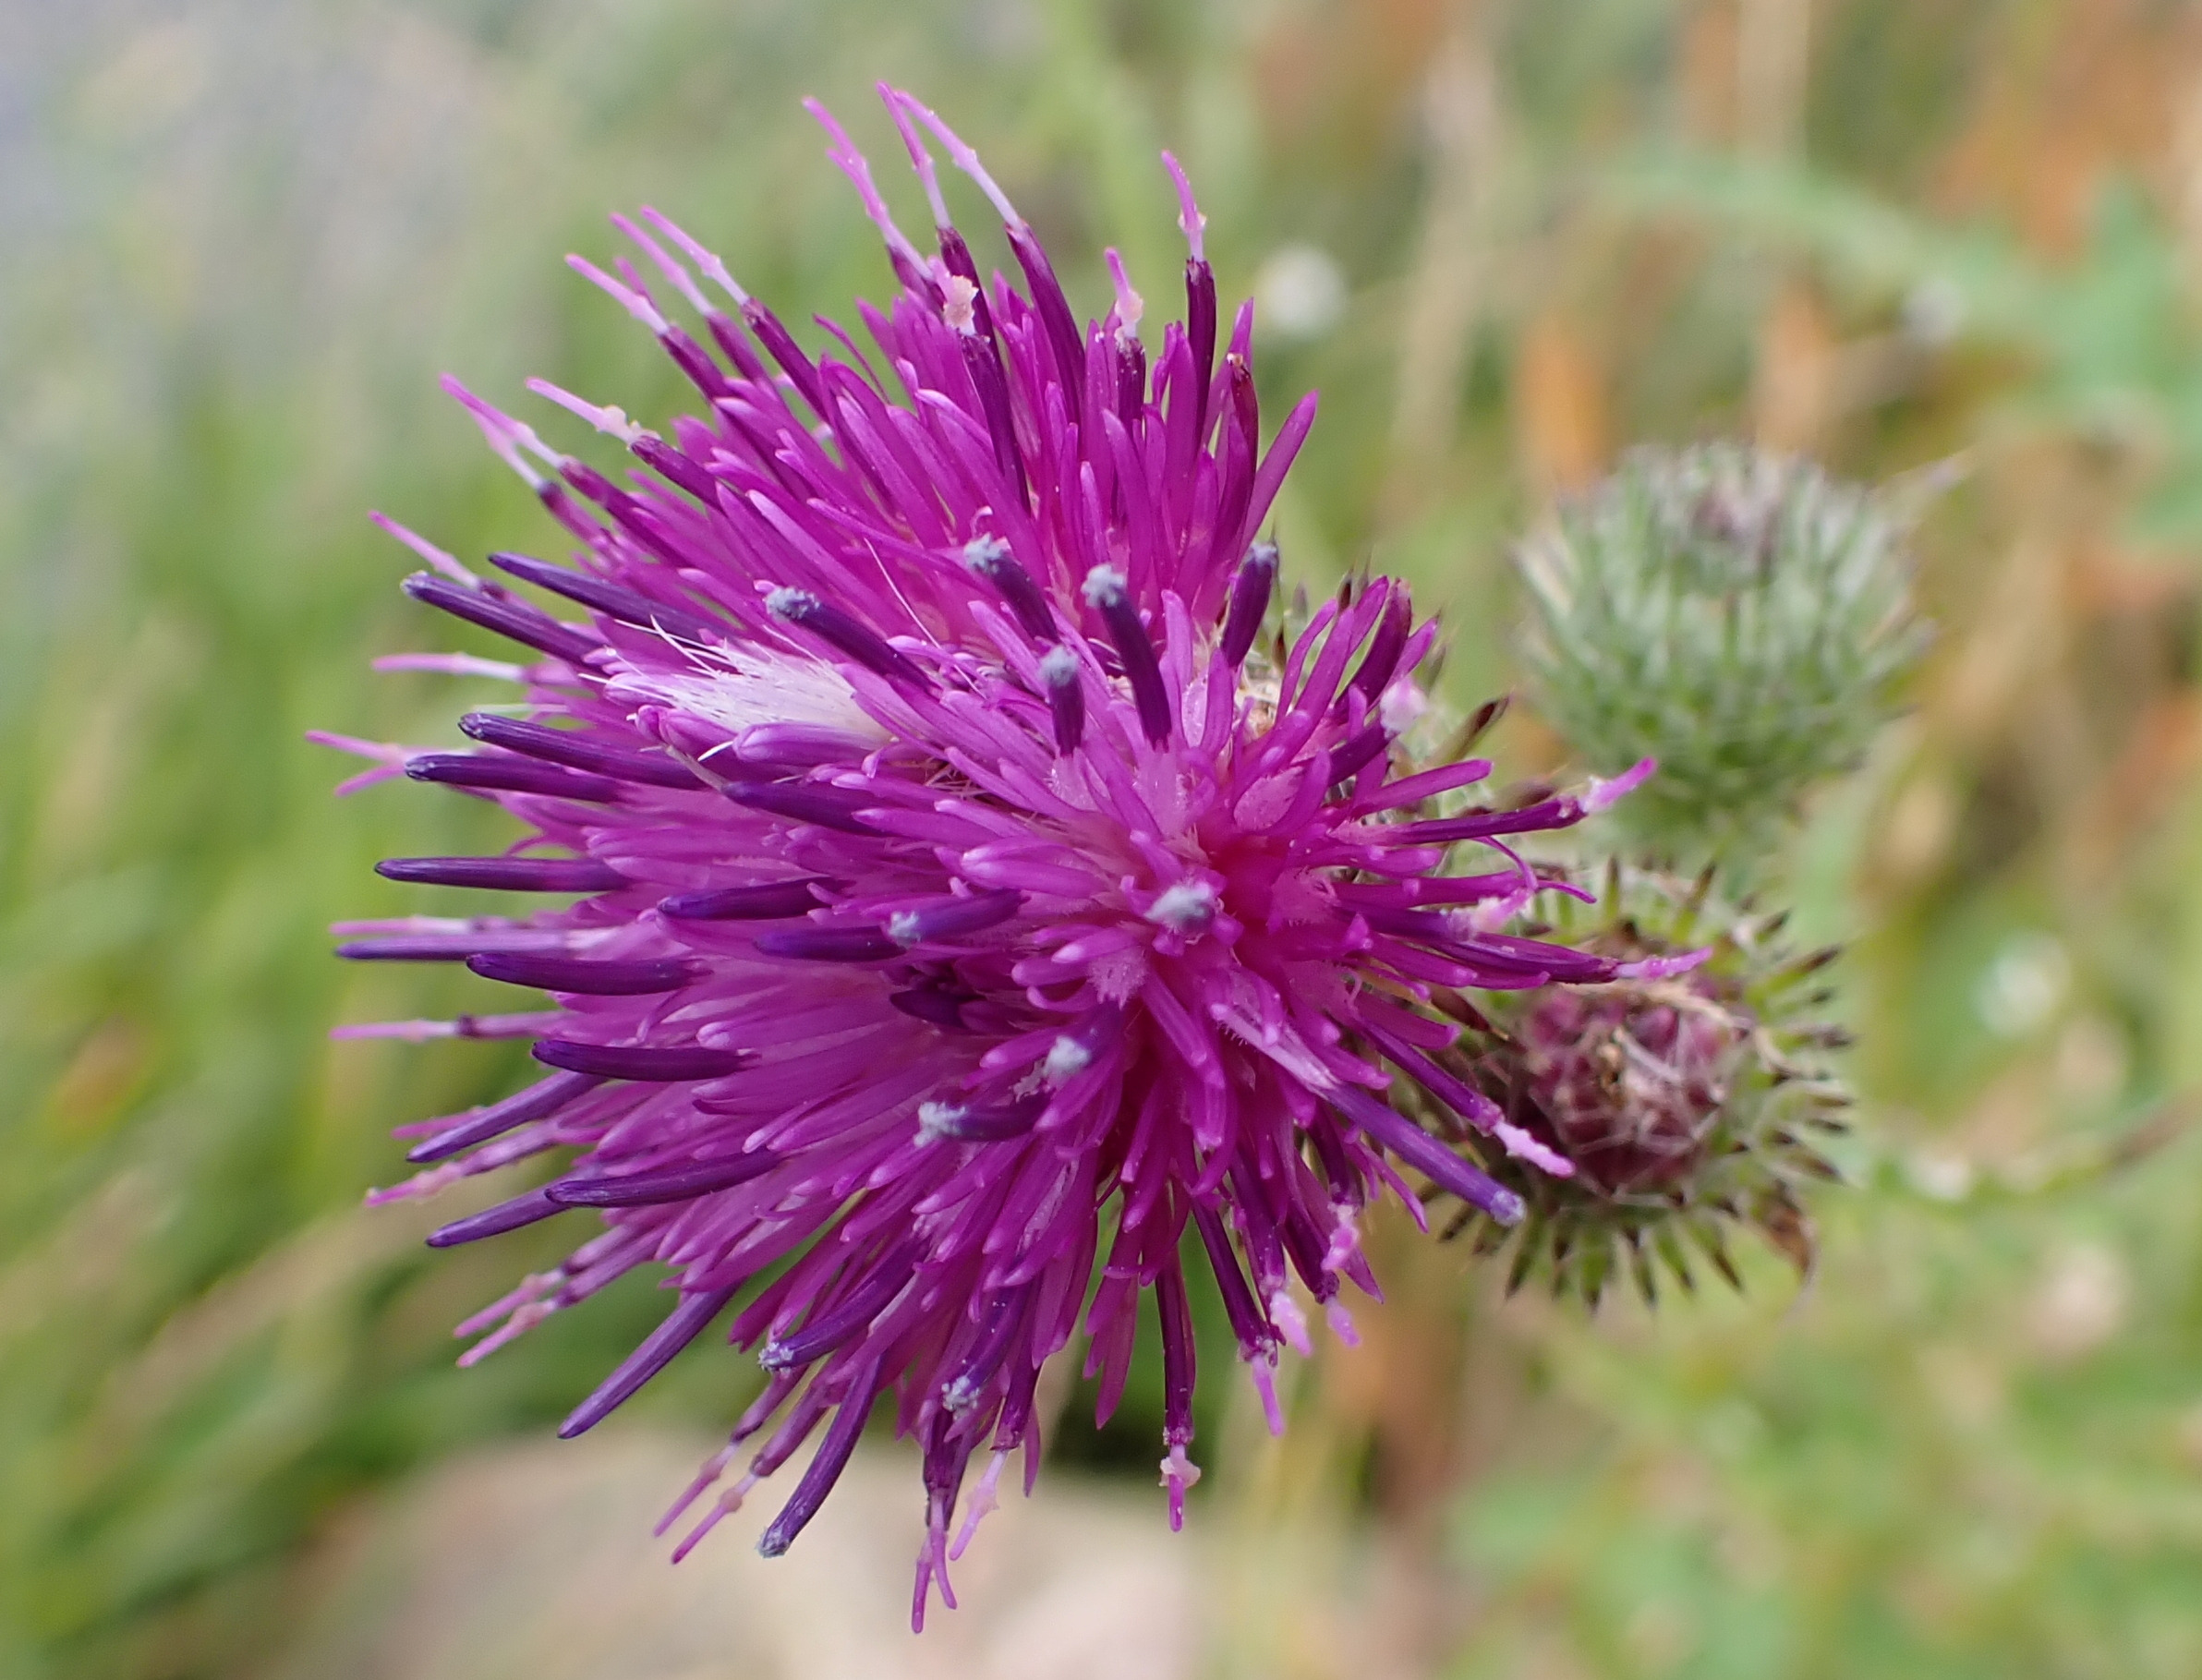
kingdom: Plantae
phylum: Tracheophyta
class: Magnoliopsida
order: Asterales
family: Asteraceae
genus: Carduus
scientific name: Carduus crispus
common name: Kruset tidsel
